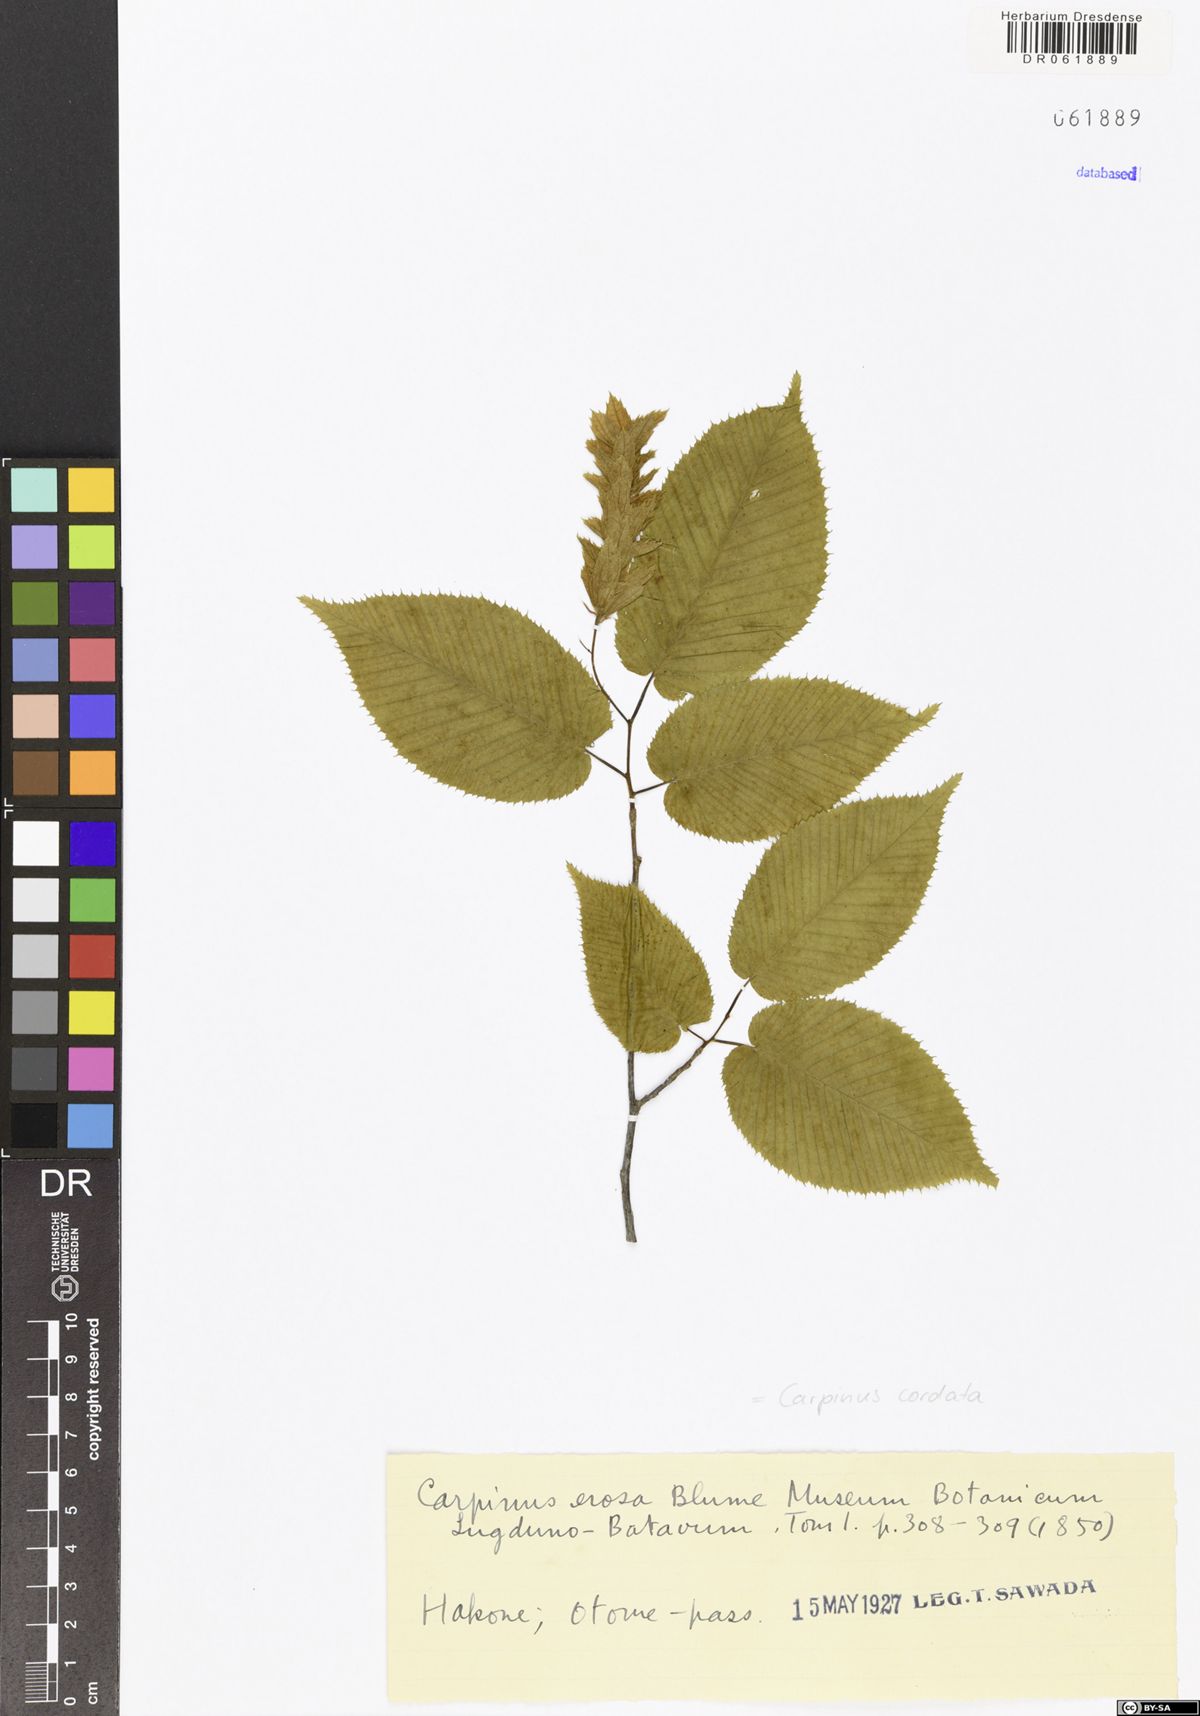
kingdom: Plantae
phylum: Tracheophyta
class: Magnoliopsida
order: Fagales
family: Betulaceae
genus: Carpinus
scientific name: Carpinus cordata
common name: Sawa hornbeam
